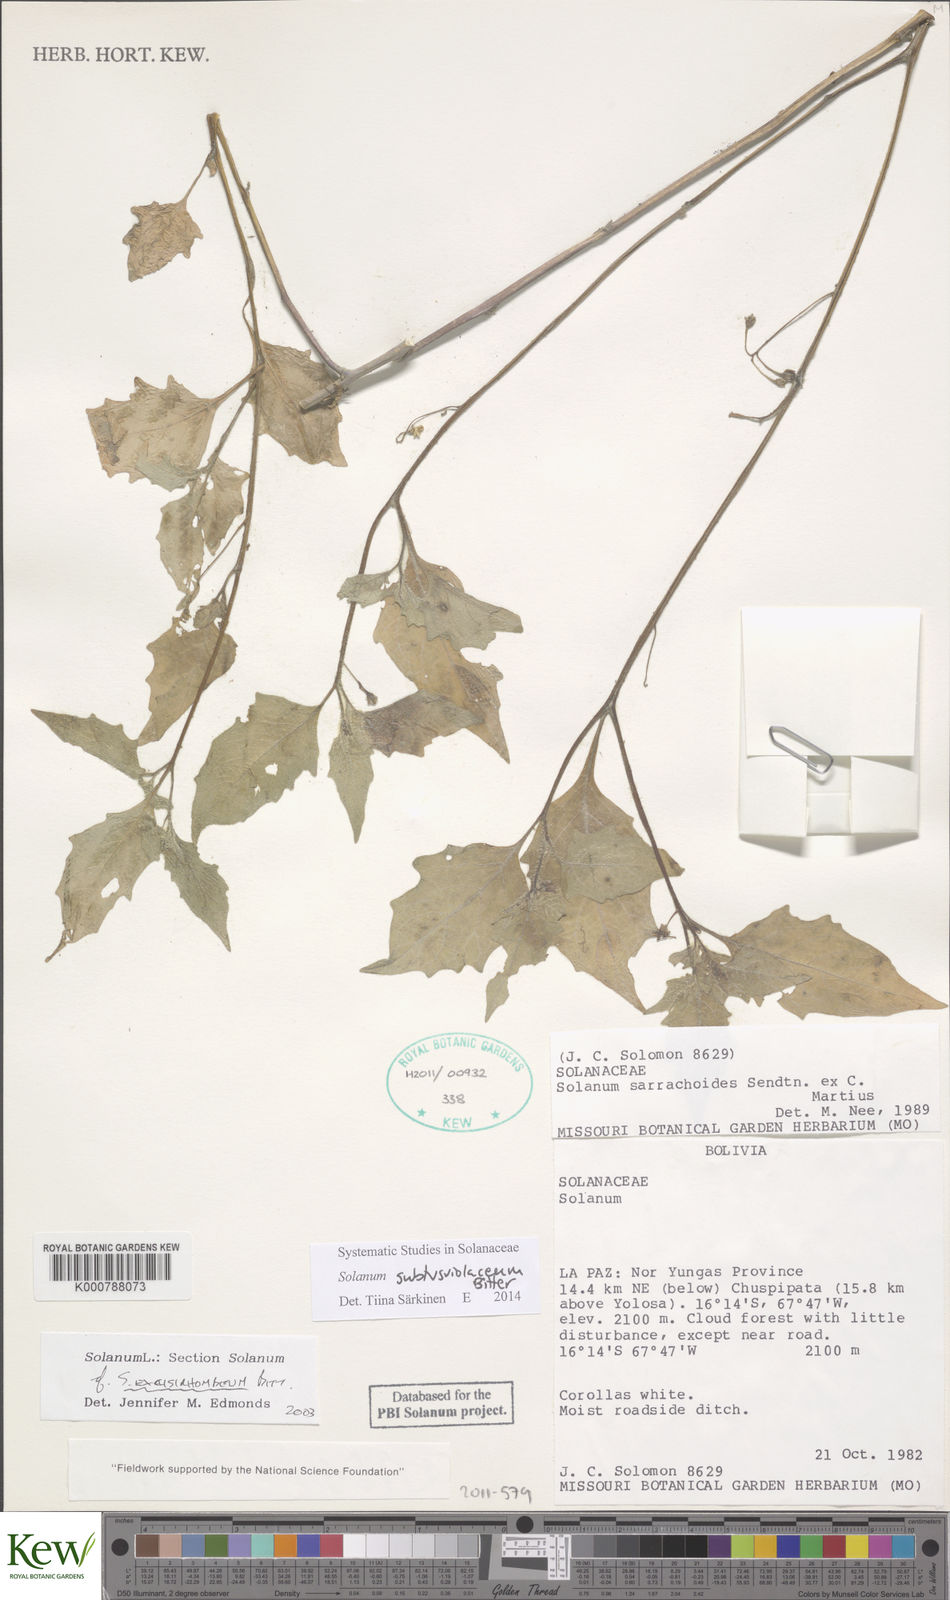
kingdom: Plantae
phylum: Tracheophyta
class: Magnoliopsida
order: Solanales
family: Solanaceae
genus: Solanum
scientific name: Solanum pallidum
